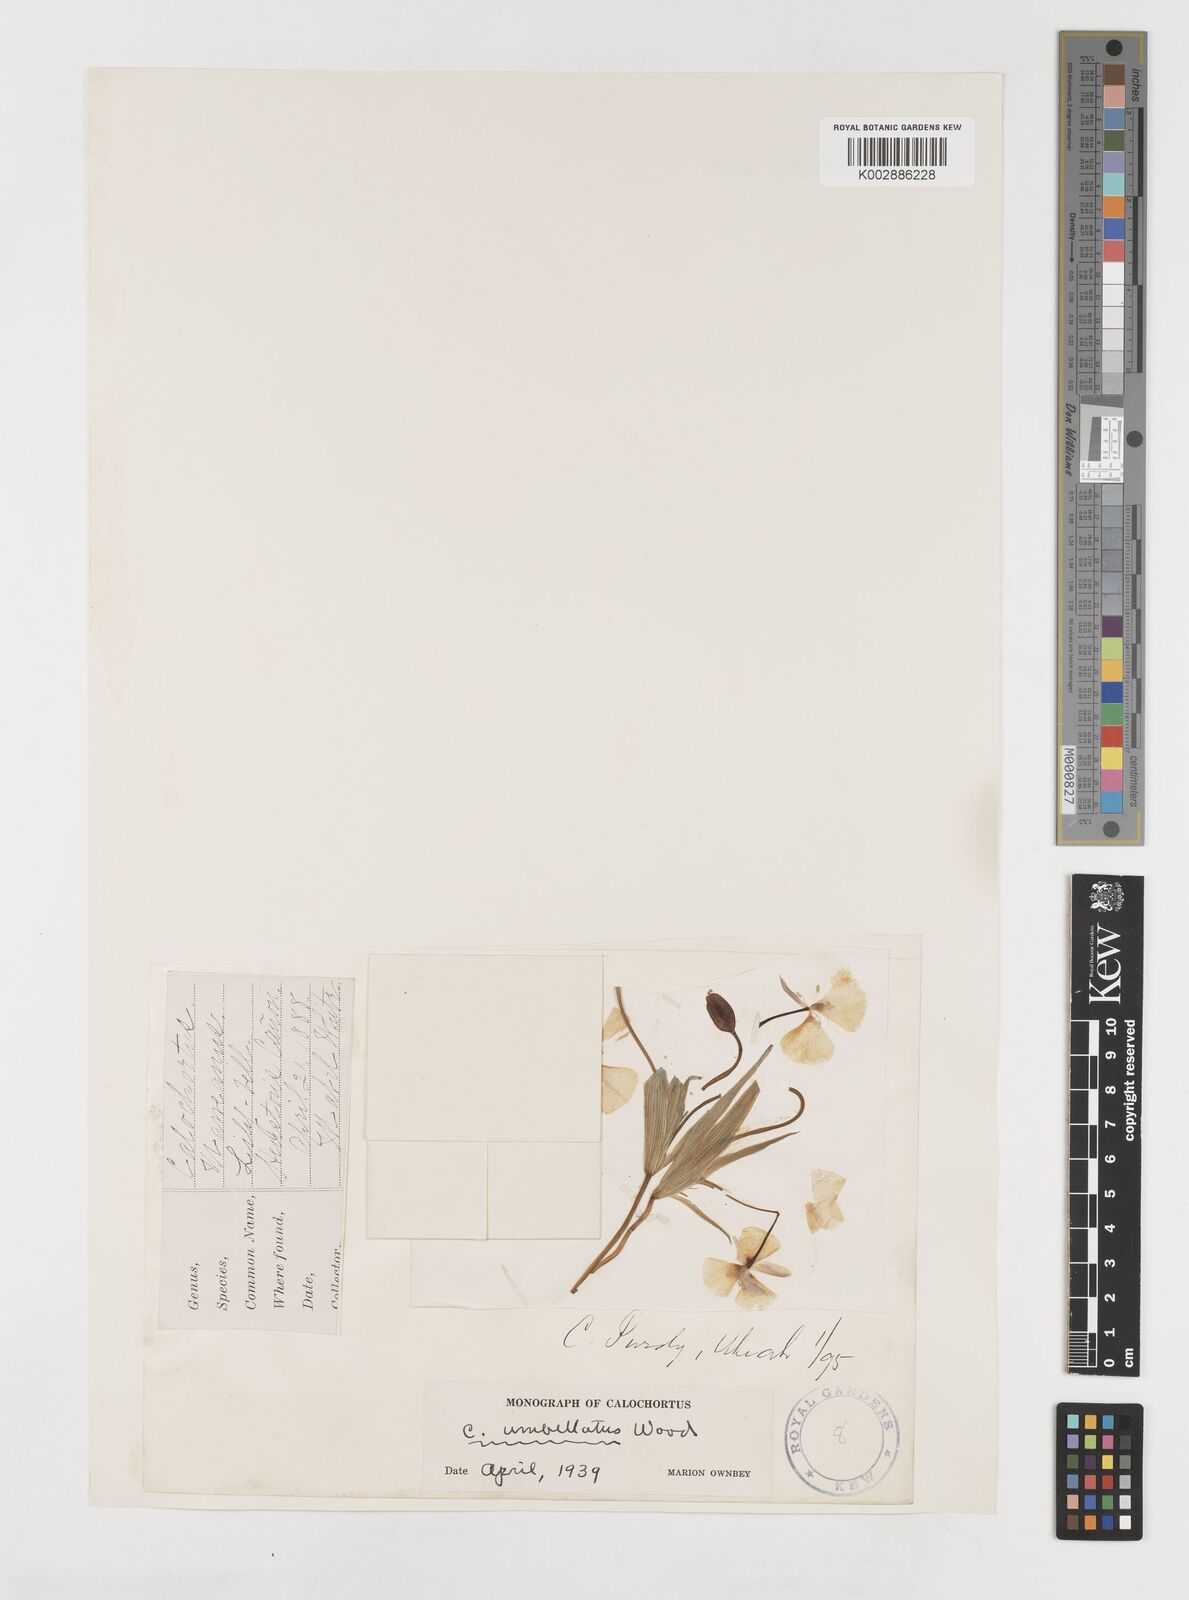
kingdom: Plantae
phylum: Tracheophyta
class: Liliopsida
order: Liliales
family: Liliaceae
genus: Calochortus
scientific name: Calochortus umbellatus
